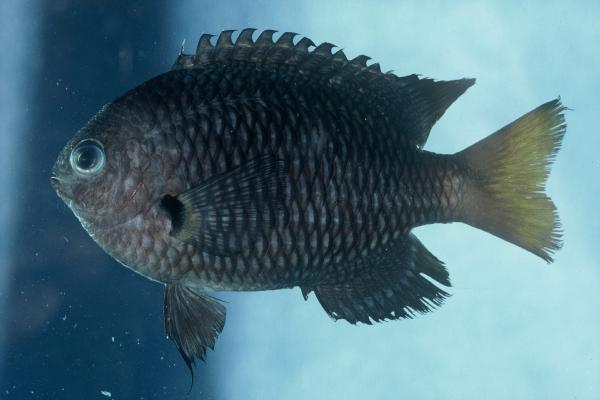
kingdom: Animalia
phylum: Chordata
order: Perciformes
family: Pomacentridae
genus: Pomacentrus
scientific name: Pomacentrus brachialis
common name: Charcoal damsel
